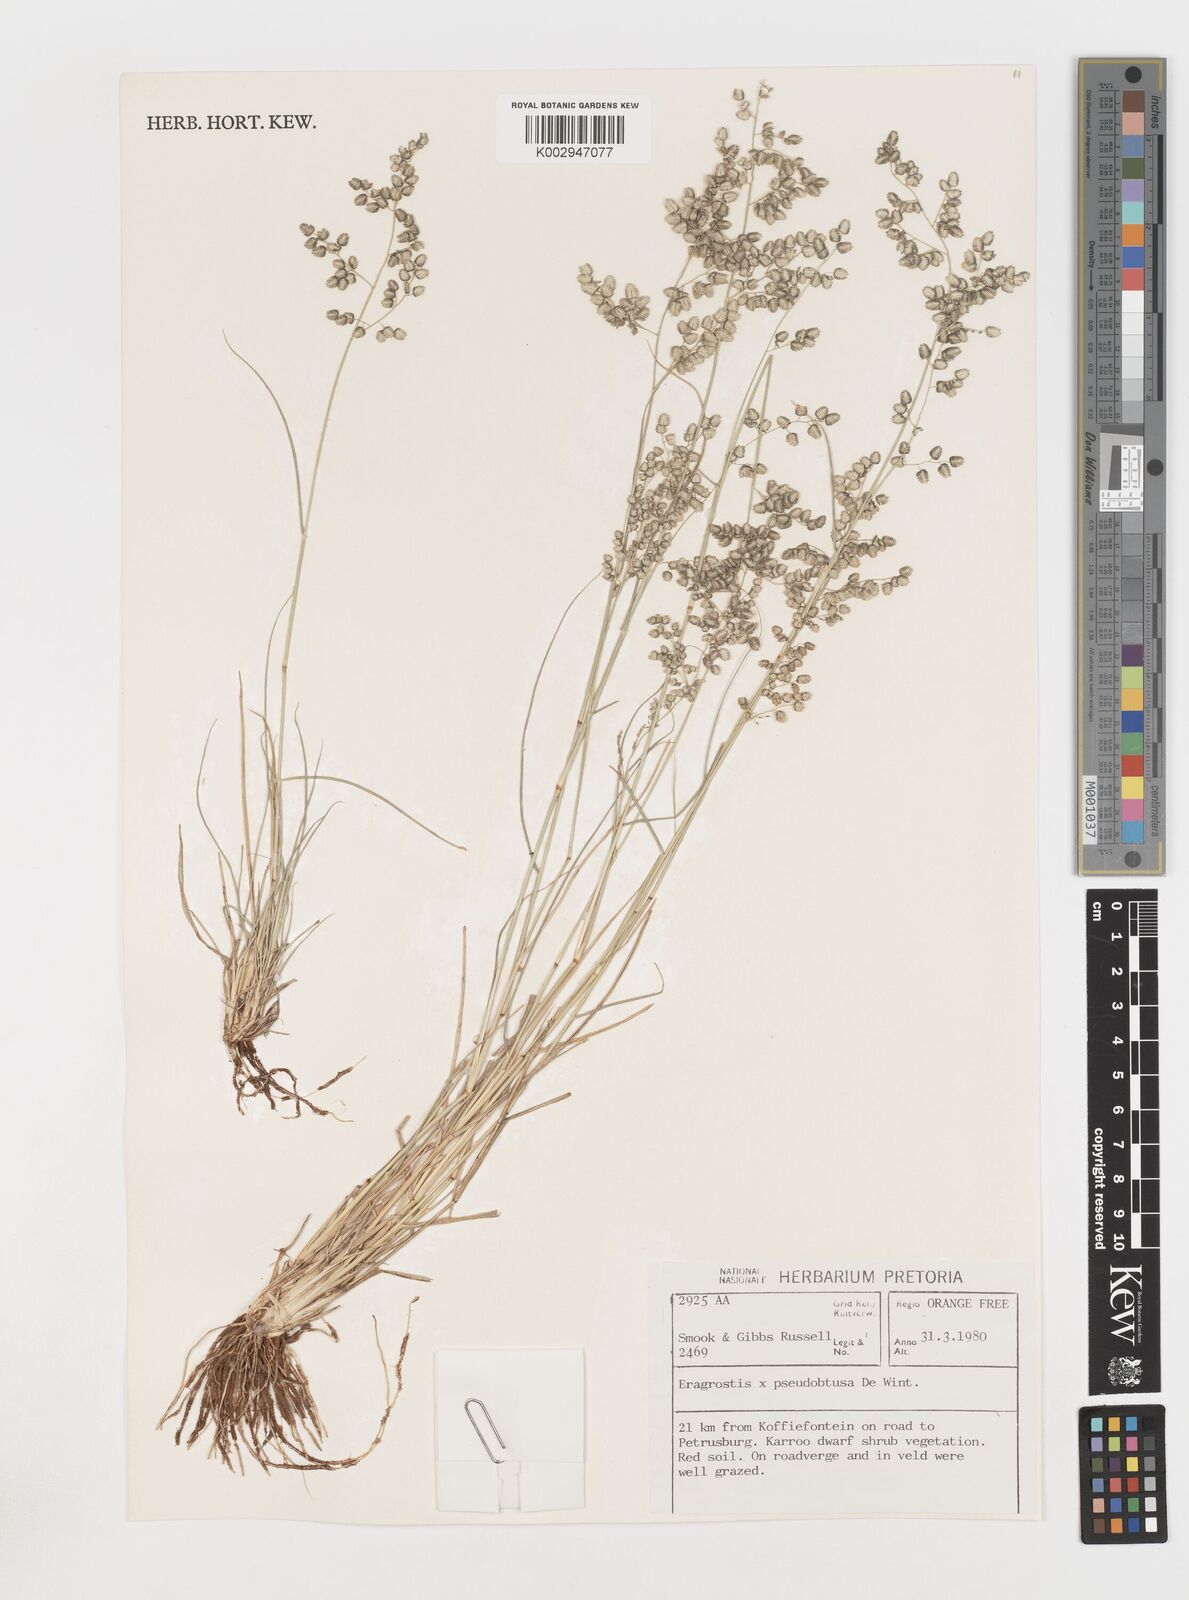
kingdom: Plantae
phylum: Tracheophyta
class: Liliopsida
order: Poales
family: Poaceae
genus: Eragrostis
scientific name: Eragrostis pseudobtusa
